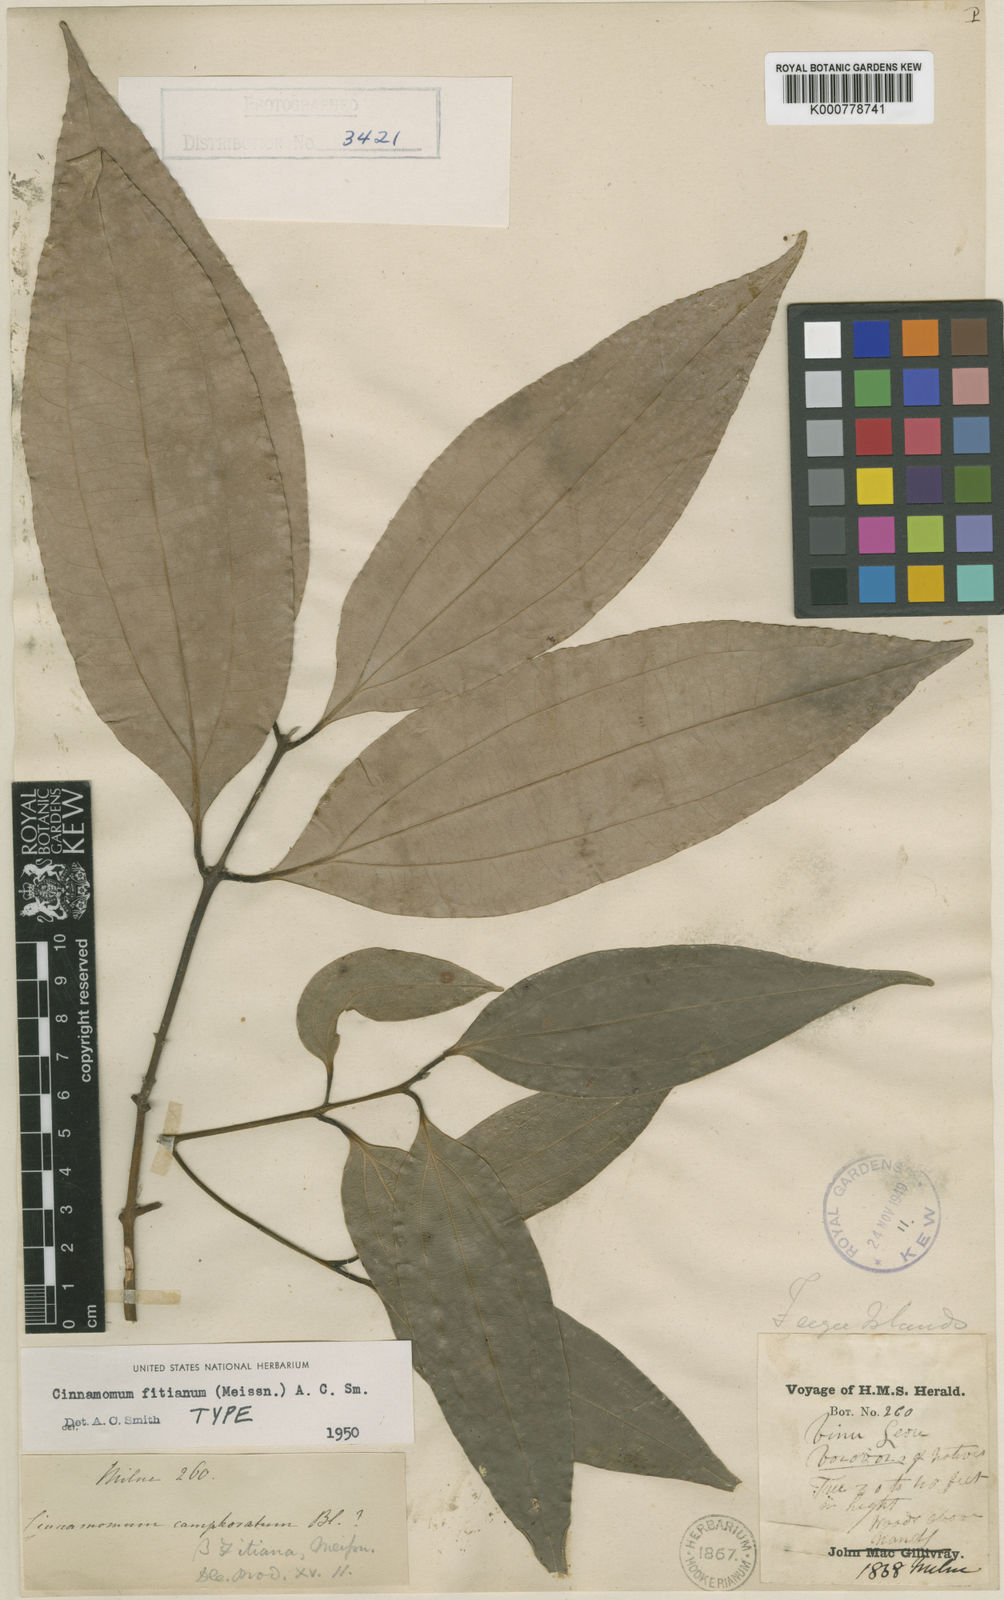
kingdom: Plantae
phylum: Tracheophyta
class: Magnoliopsida
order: Laurales
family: Lauraceae
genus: Cinnamomum
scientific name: Cinnamomum fitianum
